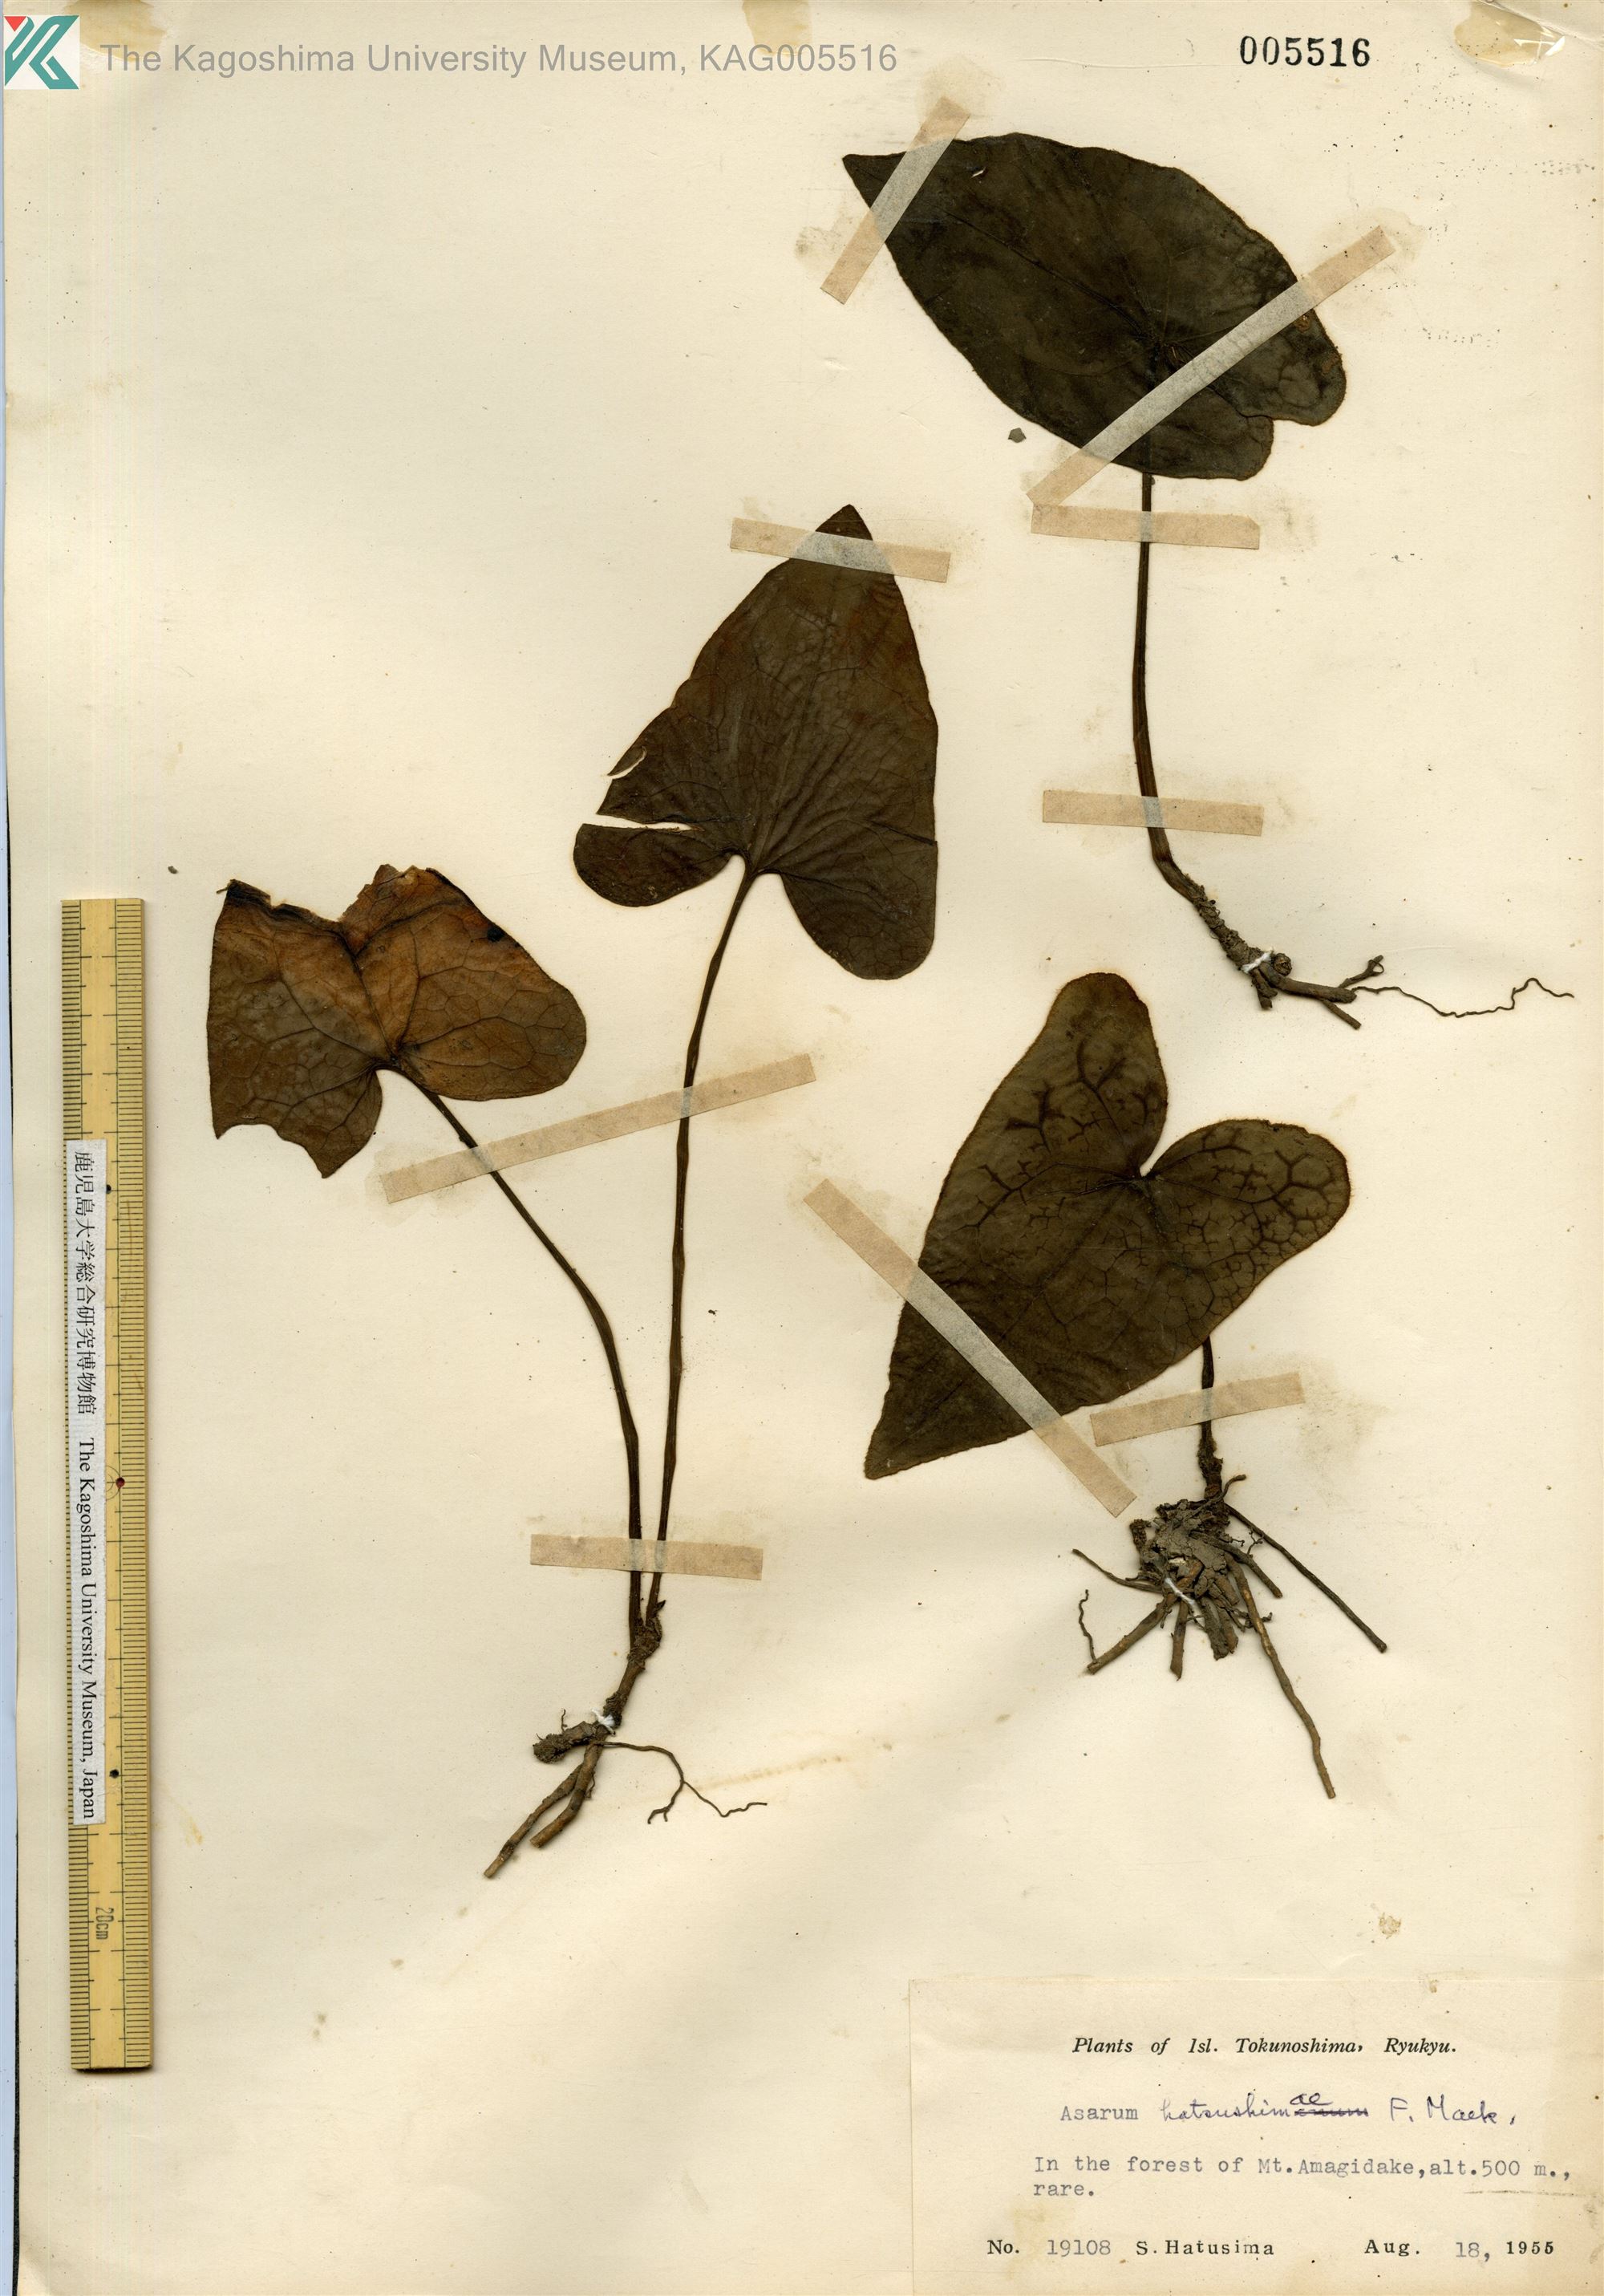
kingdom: Plantae
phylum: Tracheophyta
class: Magnoliopsida
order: Piperales
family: Aristolochiaceae
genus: Asarum
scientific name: Asarum hatushimae
